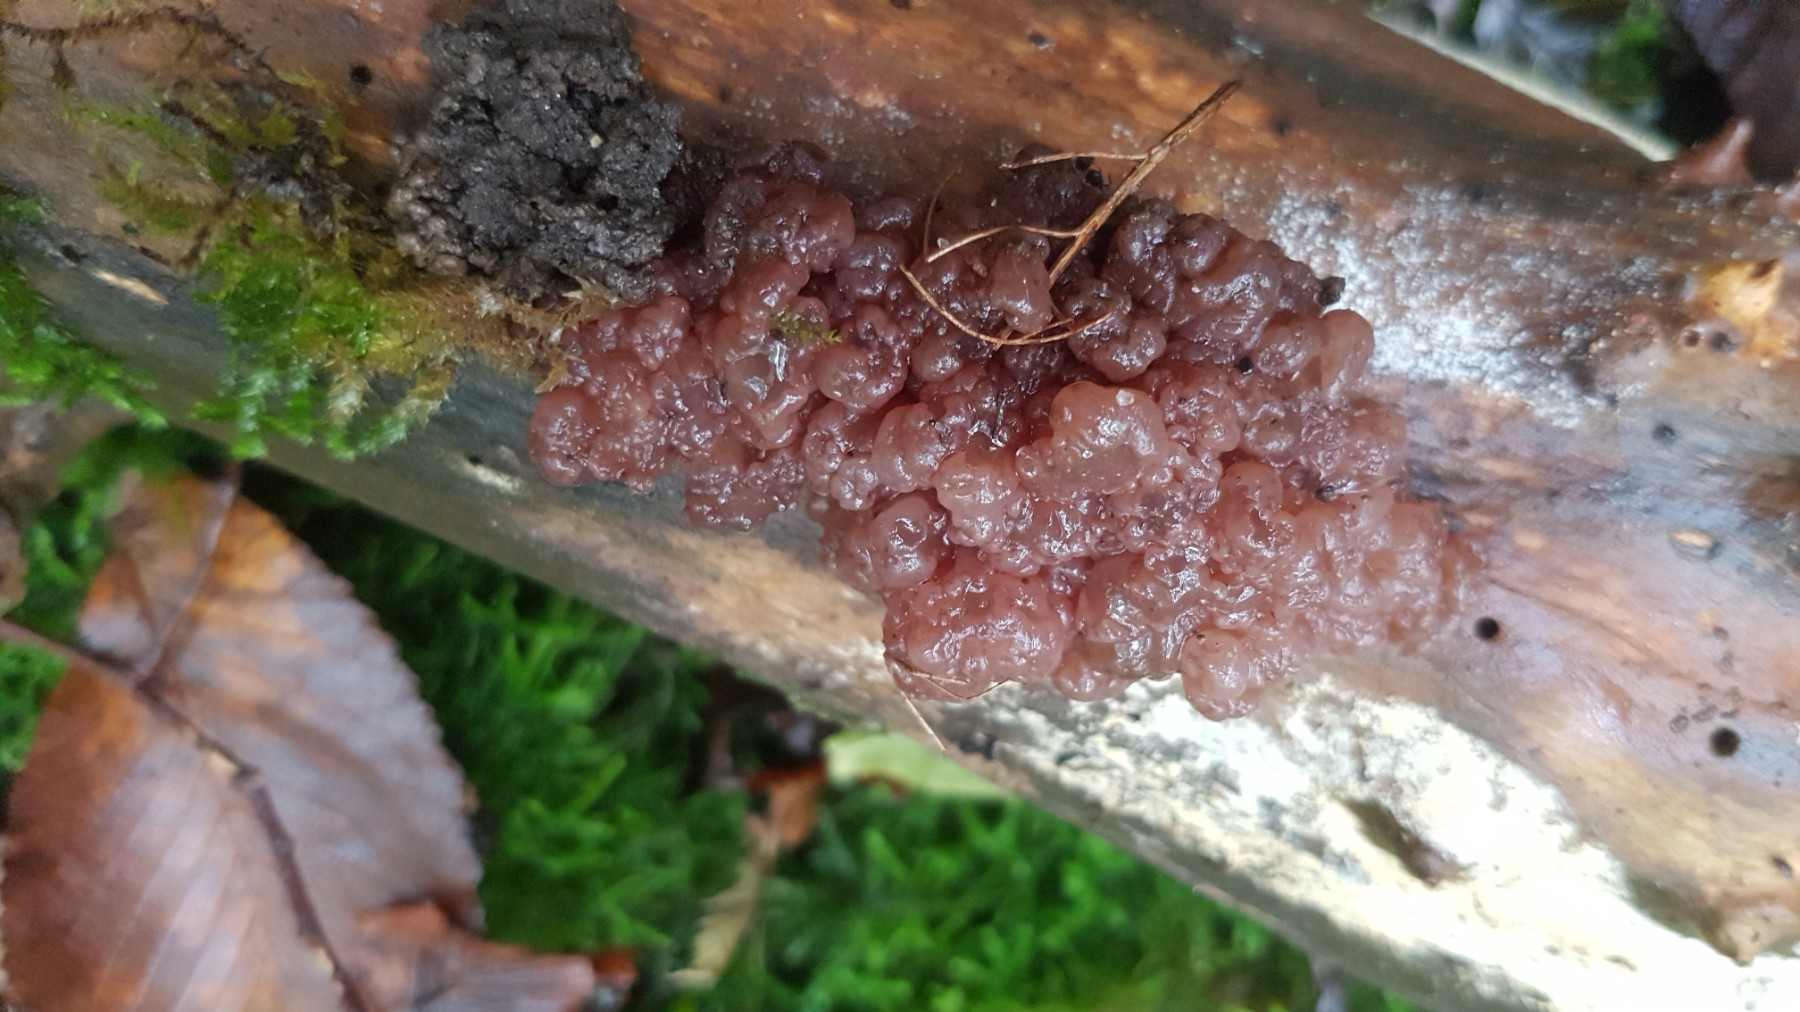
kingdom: Fungi
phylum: Ascomycota
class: Leotiomycetes
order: Helotiales
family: Gelatinodiscaceae
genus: Ascotremella
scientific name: Ascotremella faginea
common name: hjerne-bævreskive
